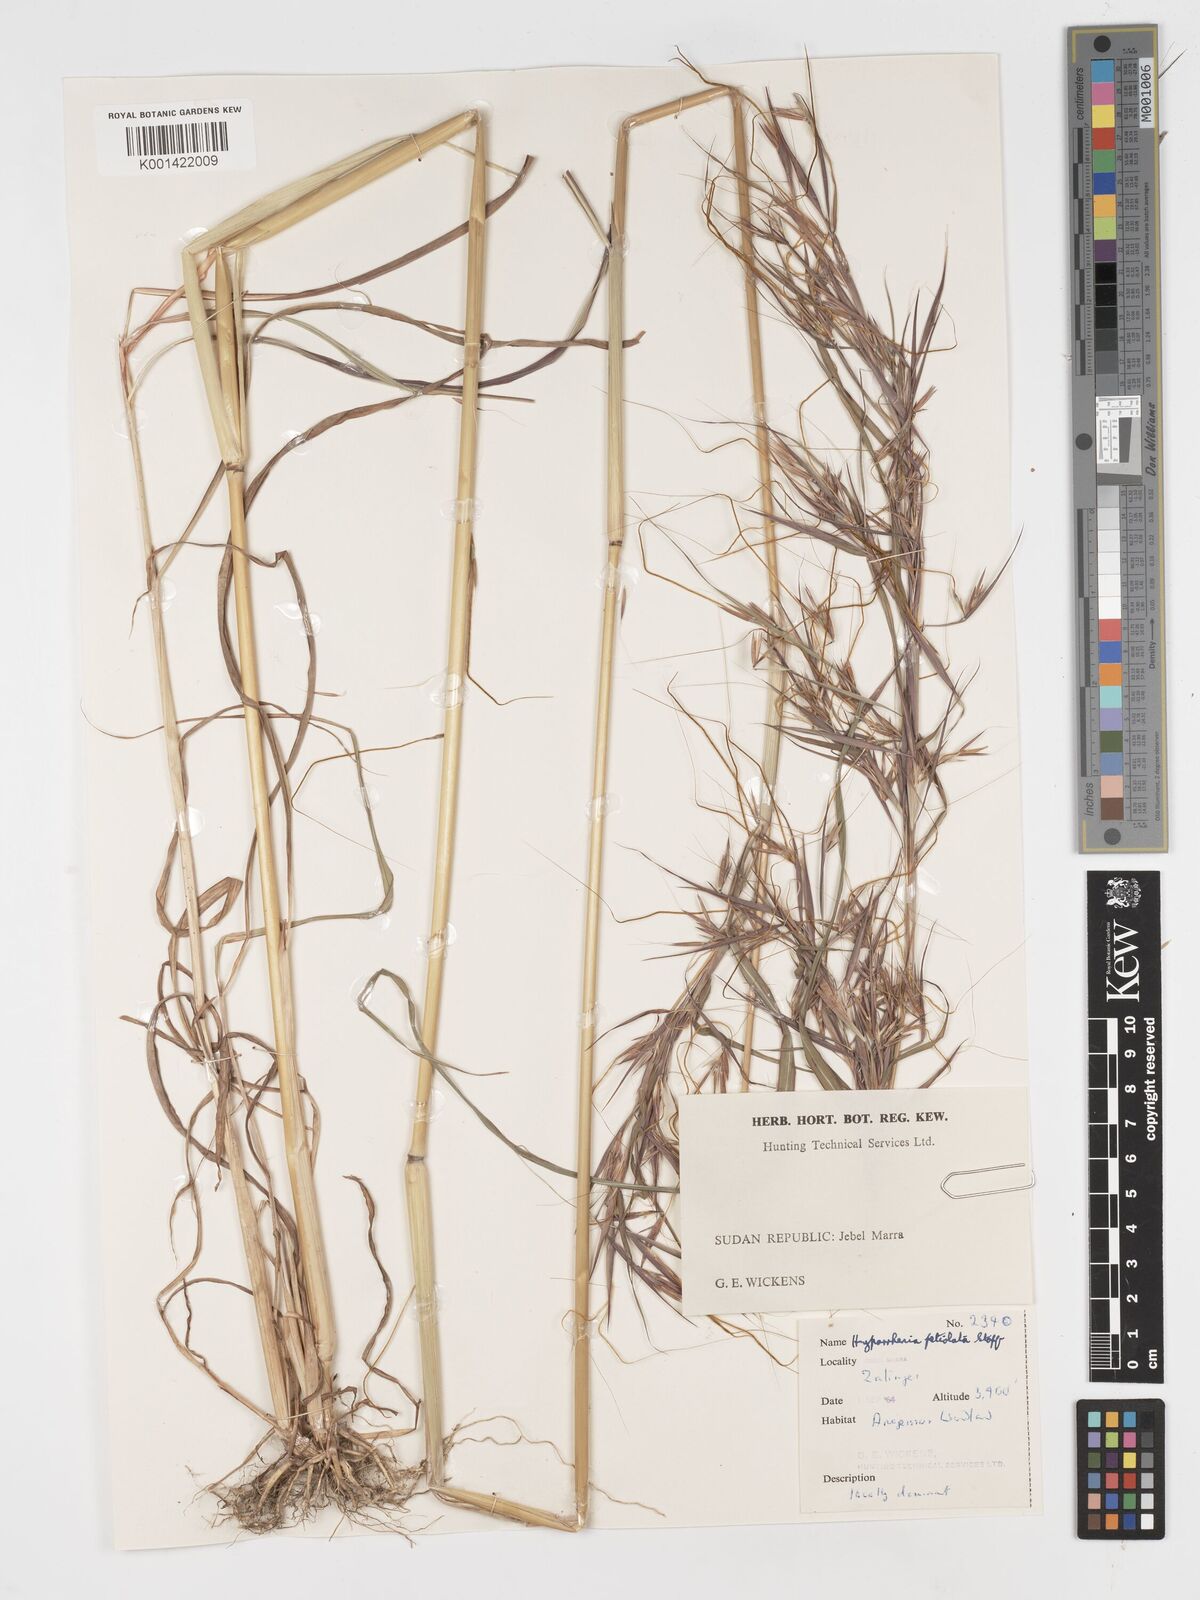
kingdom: Plantae
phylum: Tracheophyta
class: Liliopsida
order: Poales
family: Poaceae
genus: Hyparrhenia
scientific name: Hyparrhenia confinis
